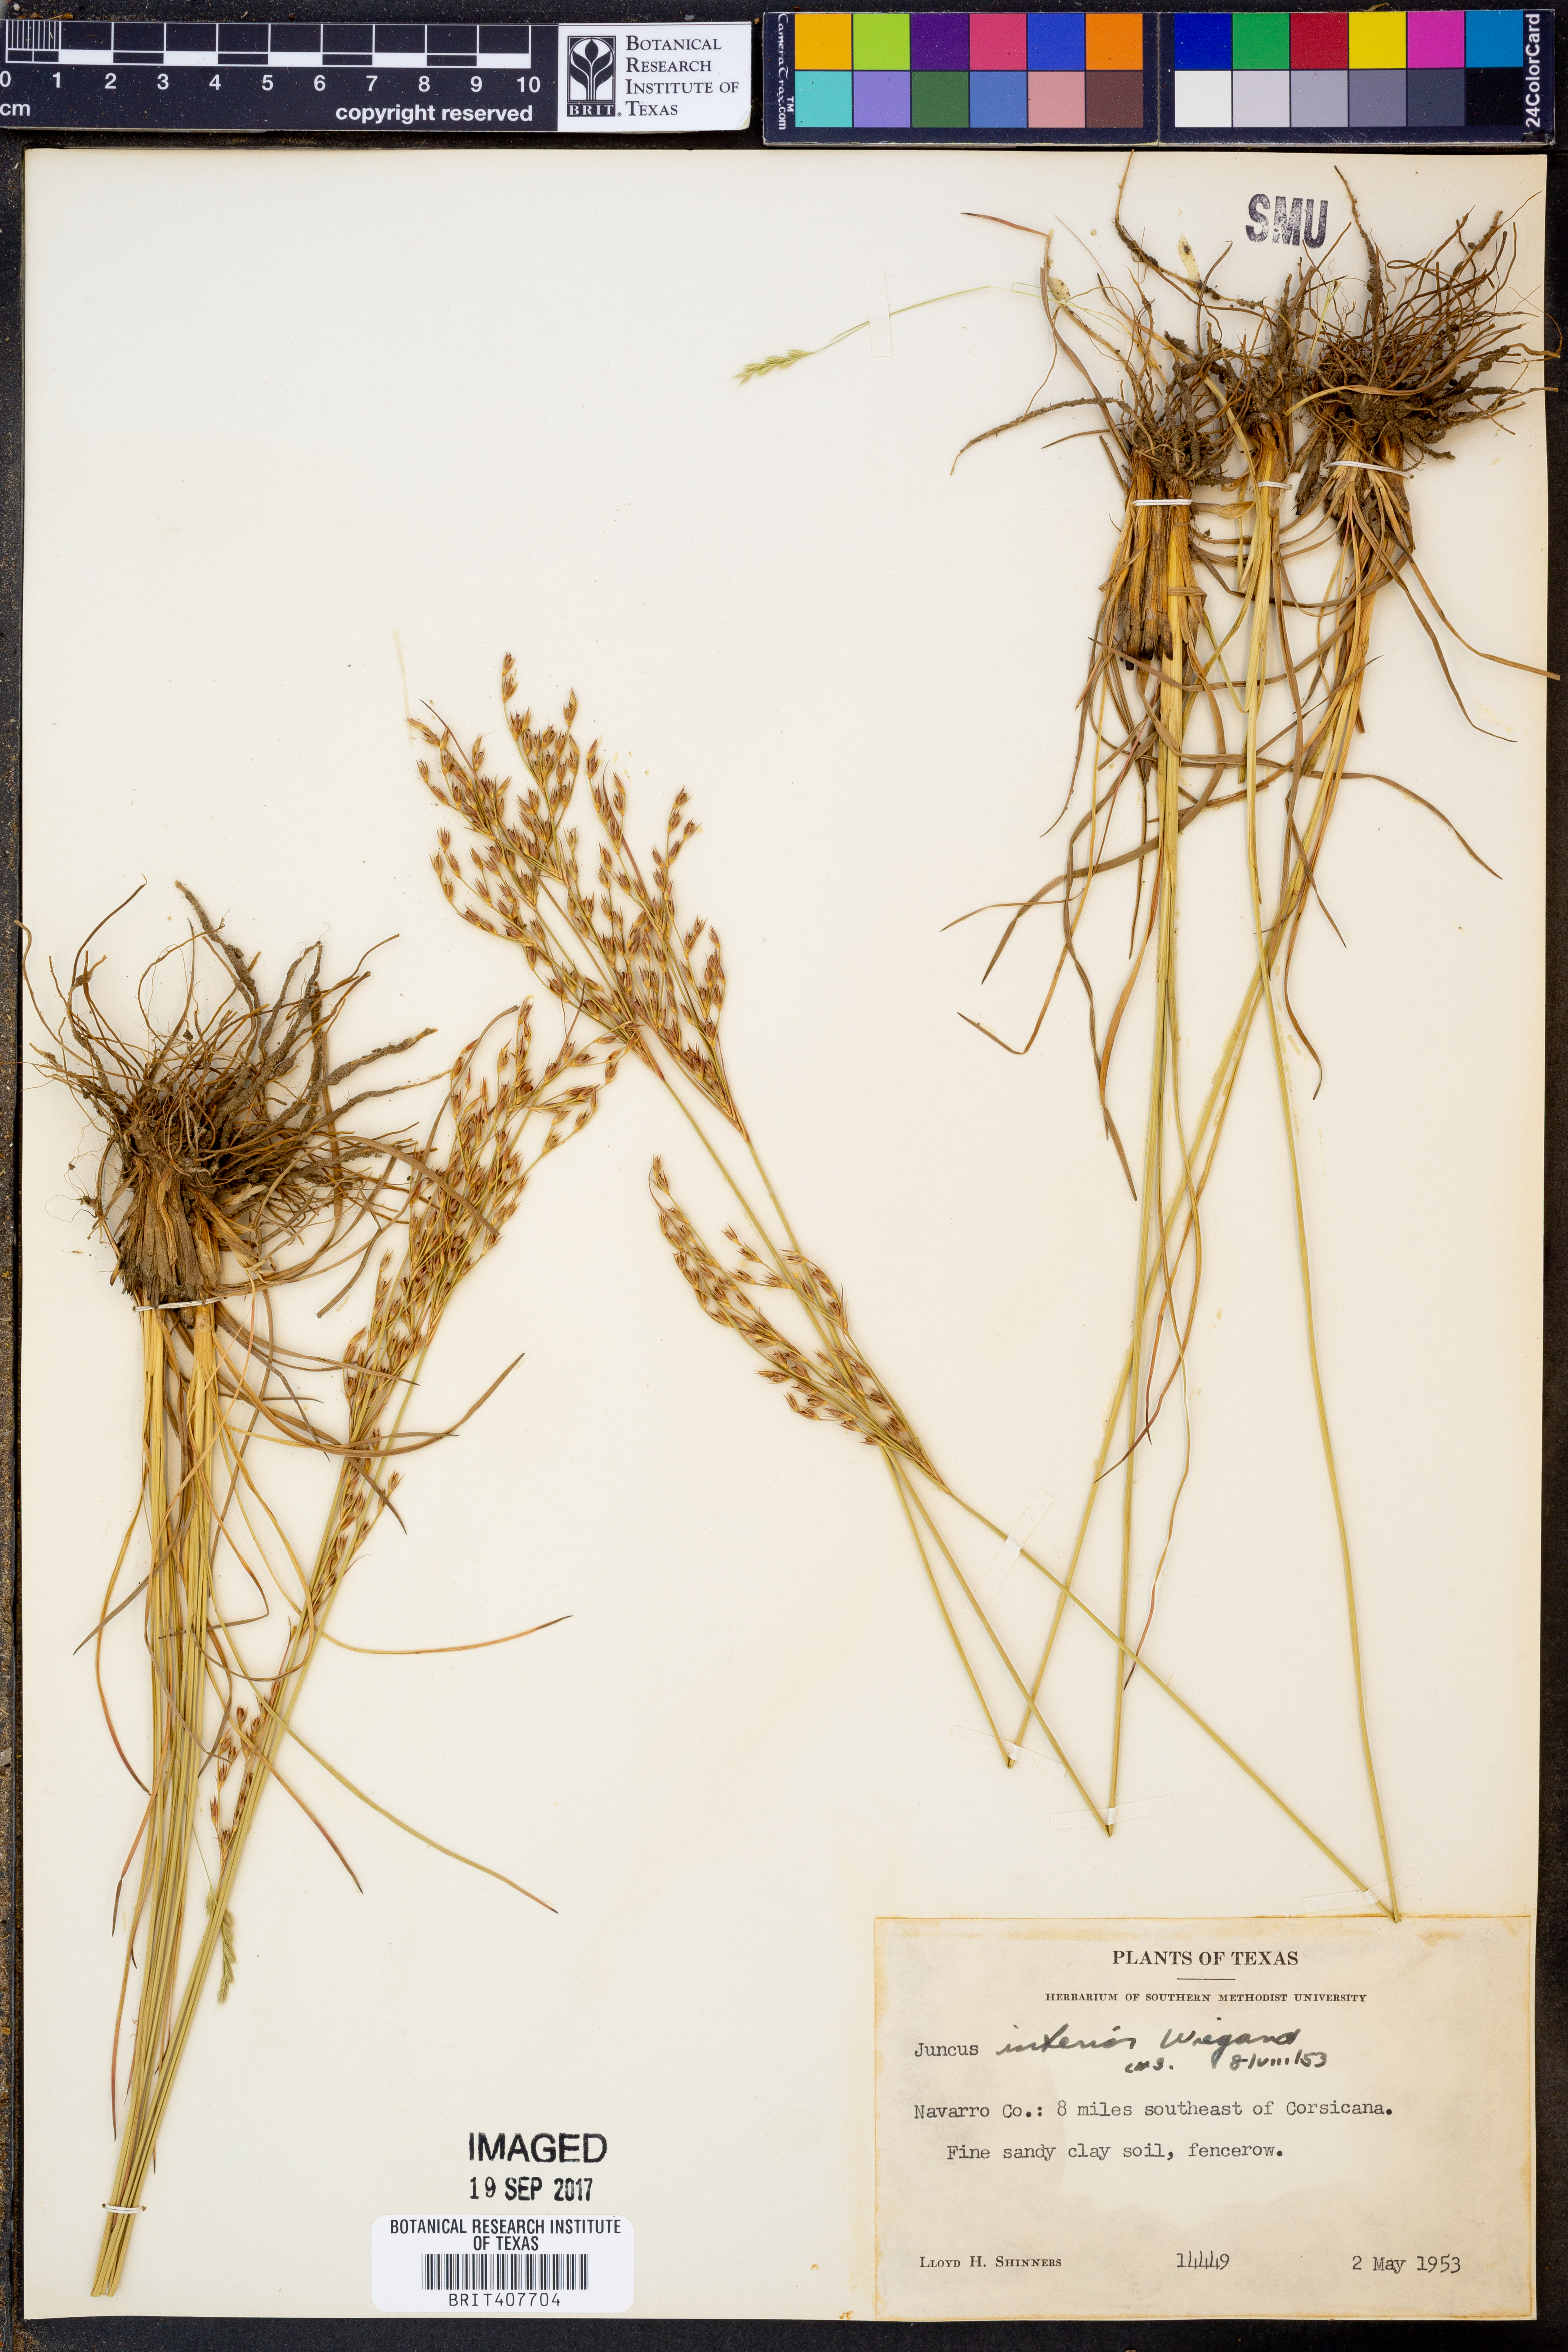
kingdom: Plantae
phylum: Tracheophyta
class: Liliopsida
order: Poales
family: Juncaceae
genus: Juncus
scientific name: Juncus interior
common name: Interior rush
